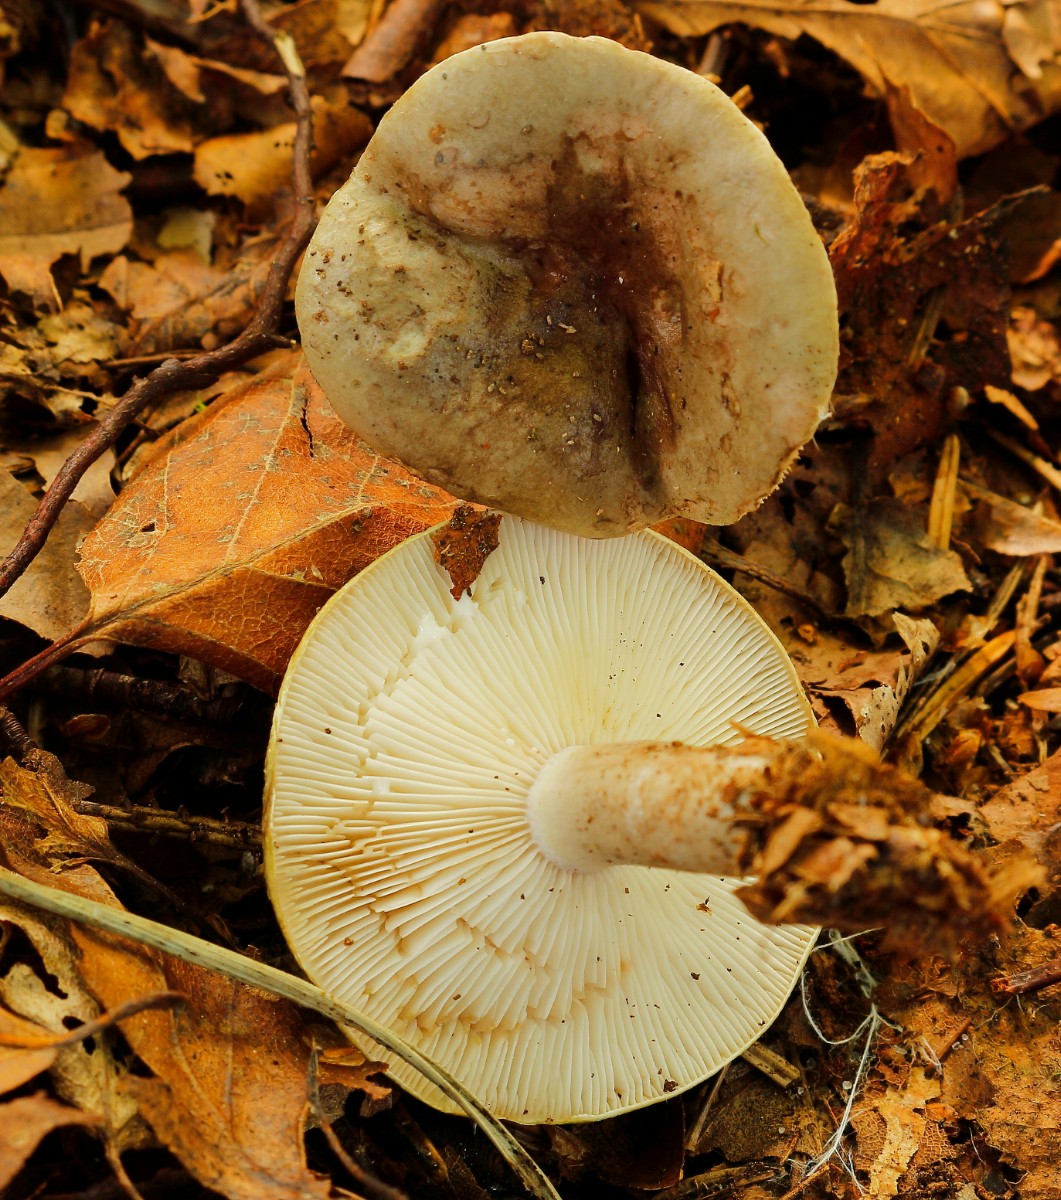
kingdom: Fungi
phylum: Basidiomycota
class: Agaricomycetes
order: Russulales
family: Russulaceae
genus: Lactarius
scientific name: Lactarius blennius
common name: dråbeplettet mælkehat
